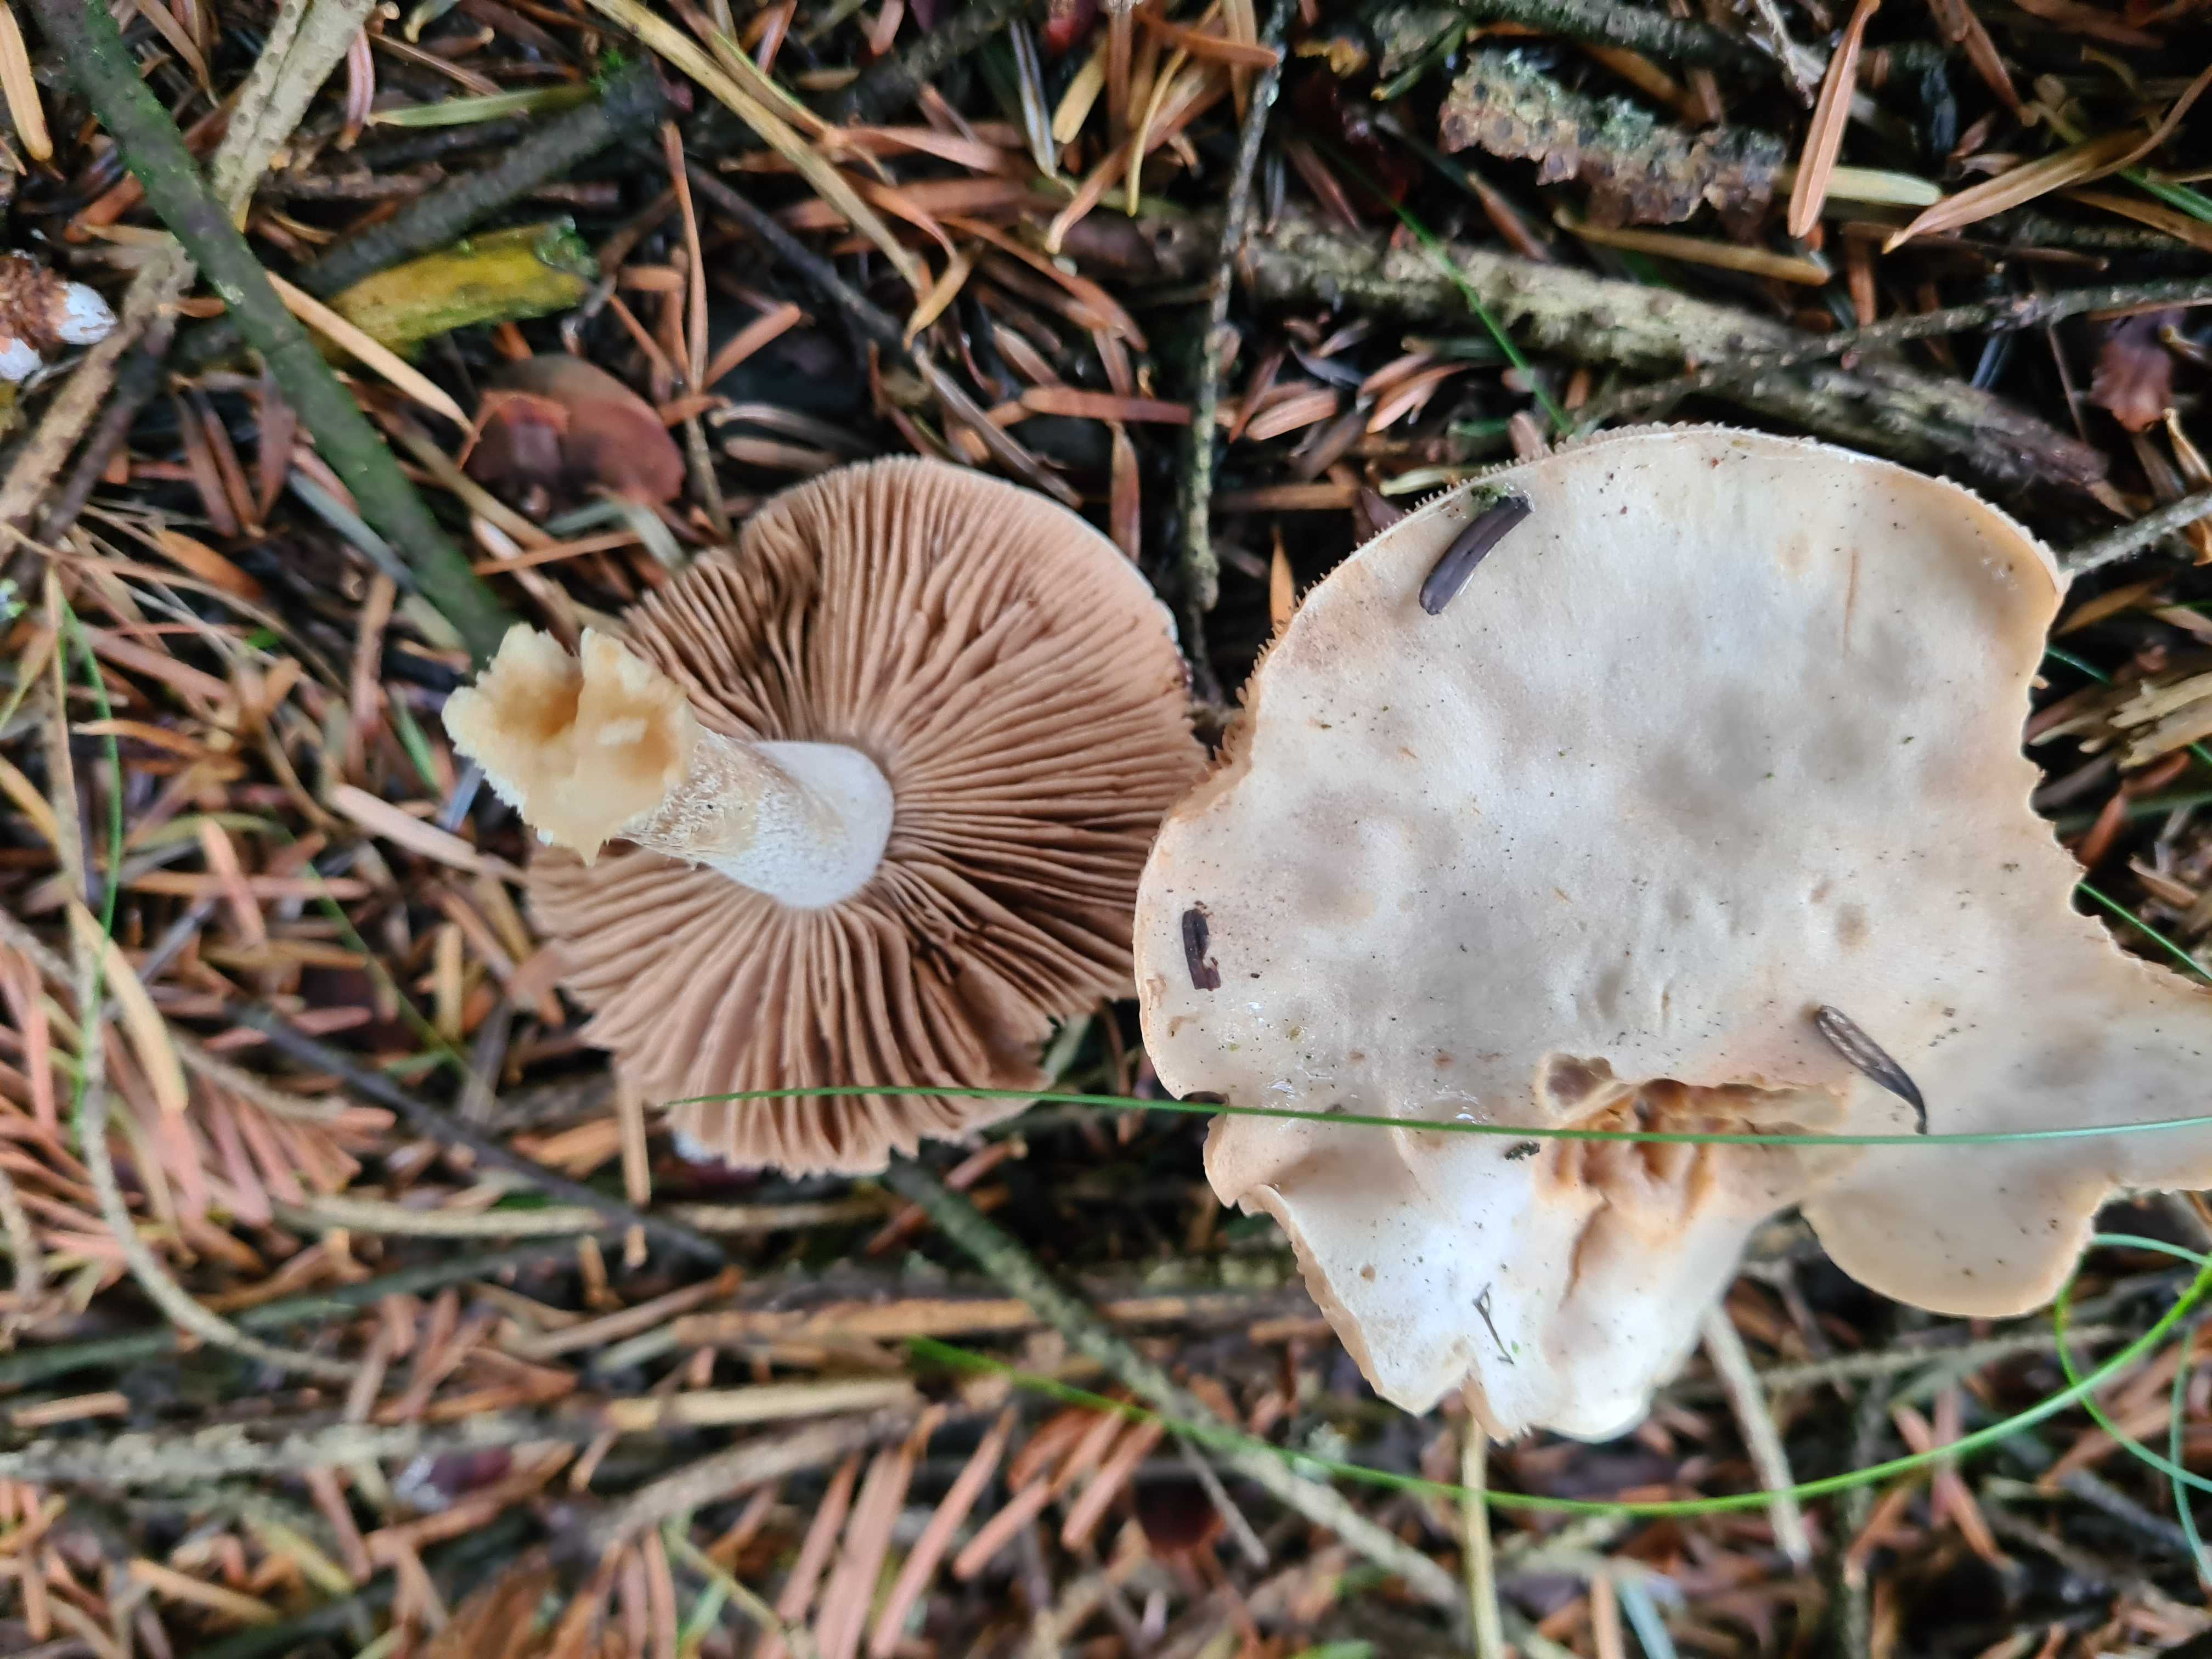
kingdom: Fungi
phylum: Basidiomycota
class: Agaricomycetes
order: Agaricales
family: Hymenogastraceae
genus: Hebeloma
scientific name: Hebeloma
